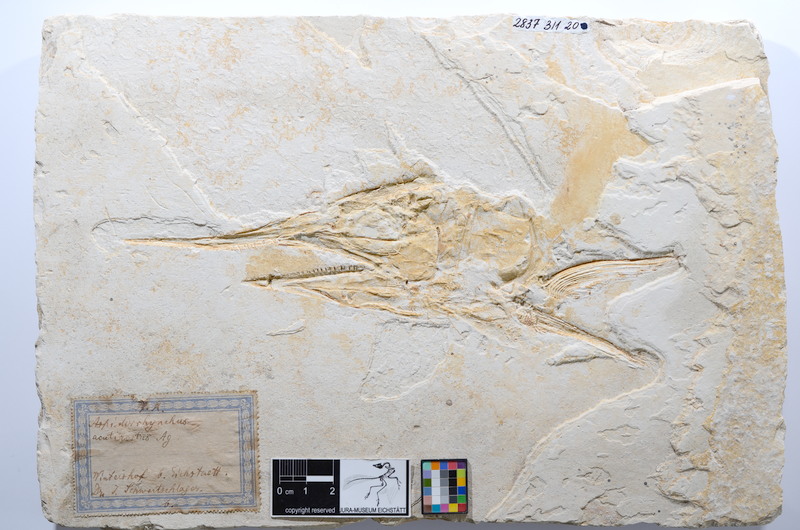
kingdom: Animalia
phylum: Chordata
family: Aspidorhynchidae
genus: Aspidorhynchus
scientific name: Aspidorhynchus acutirostris
